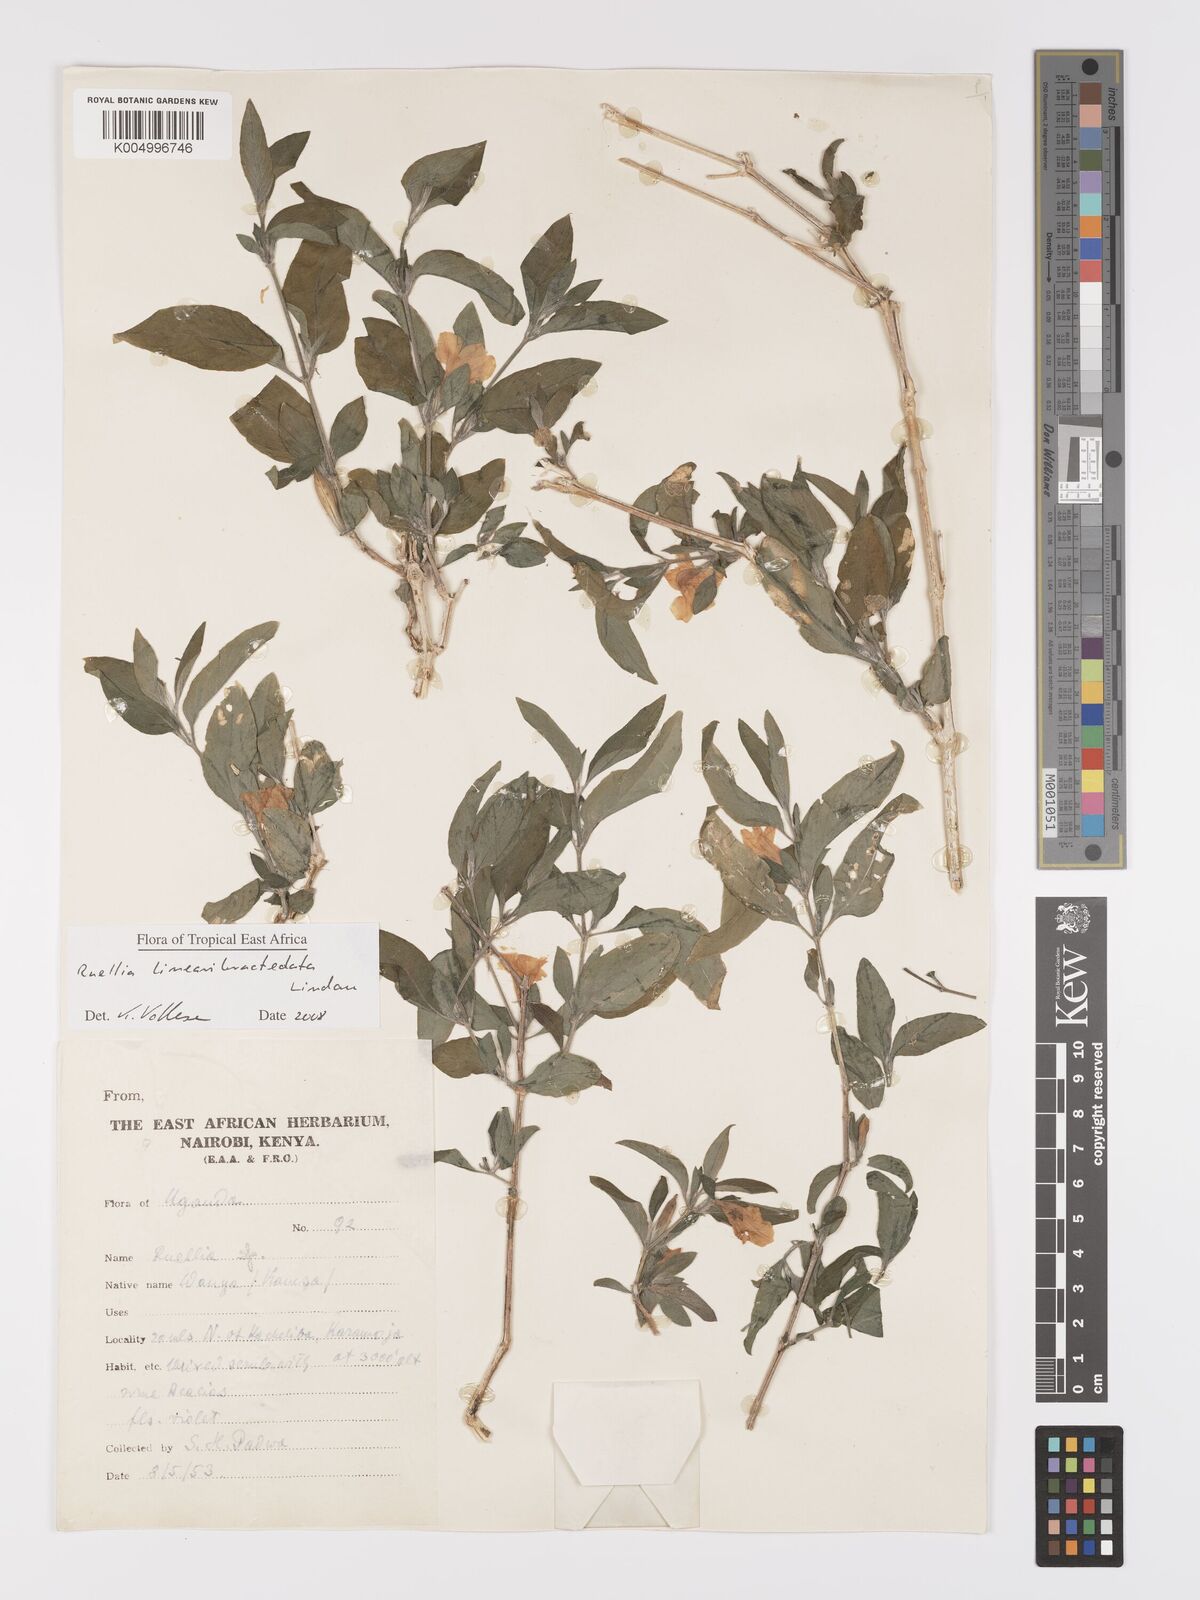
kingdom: Plantae
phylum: Tracheophyta
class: Magnoliopsida
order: Lamiales
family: Acanthaceae
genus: Ruellia
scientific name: Ruellia linearibracteolata
